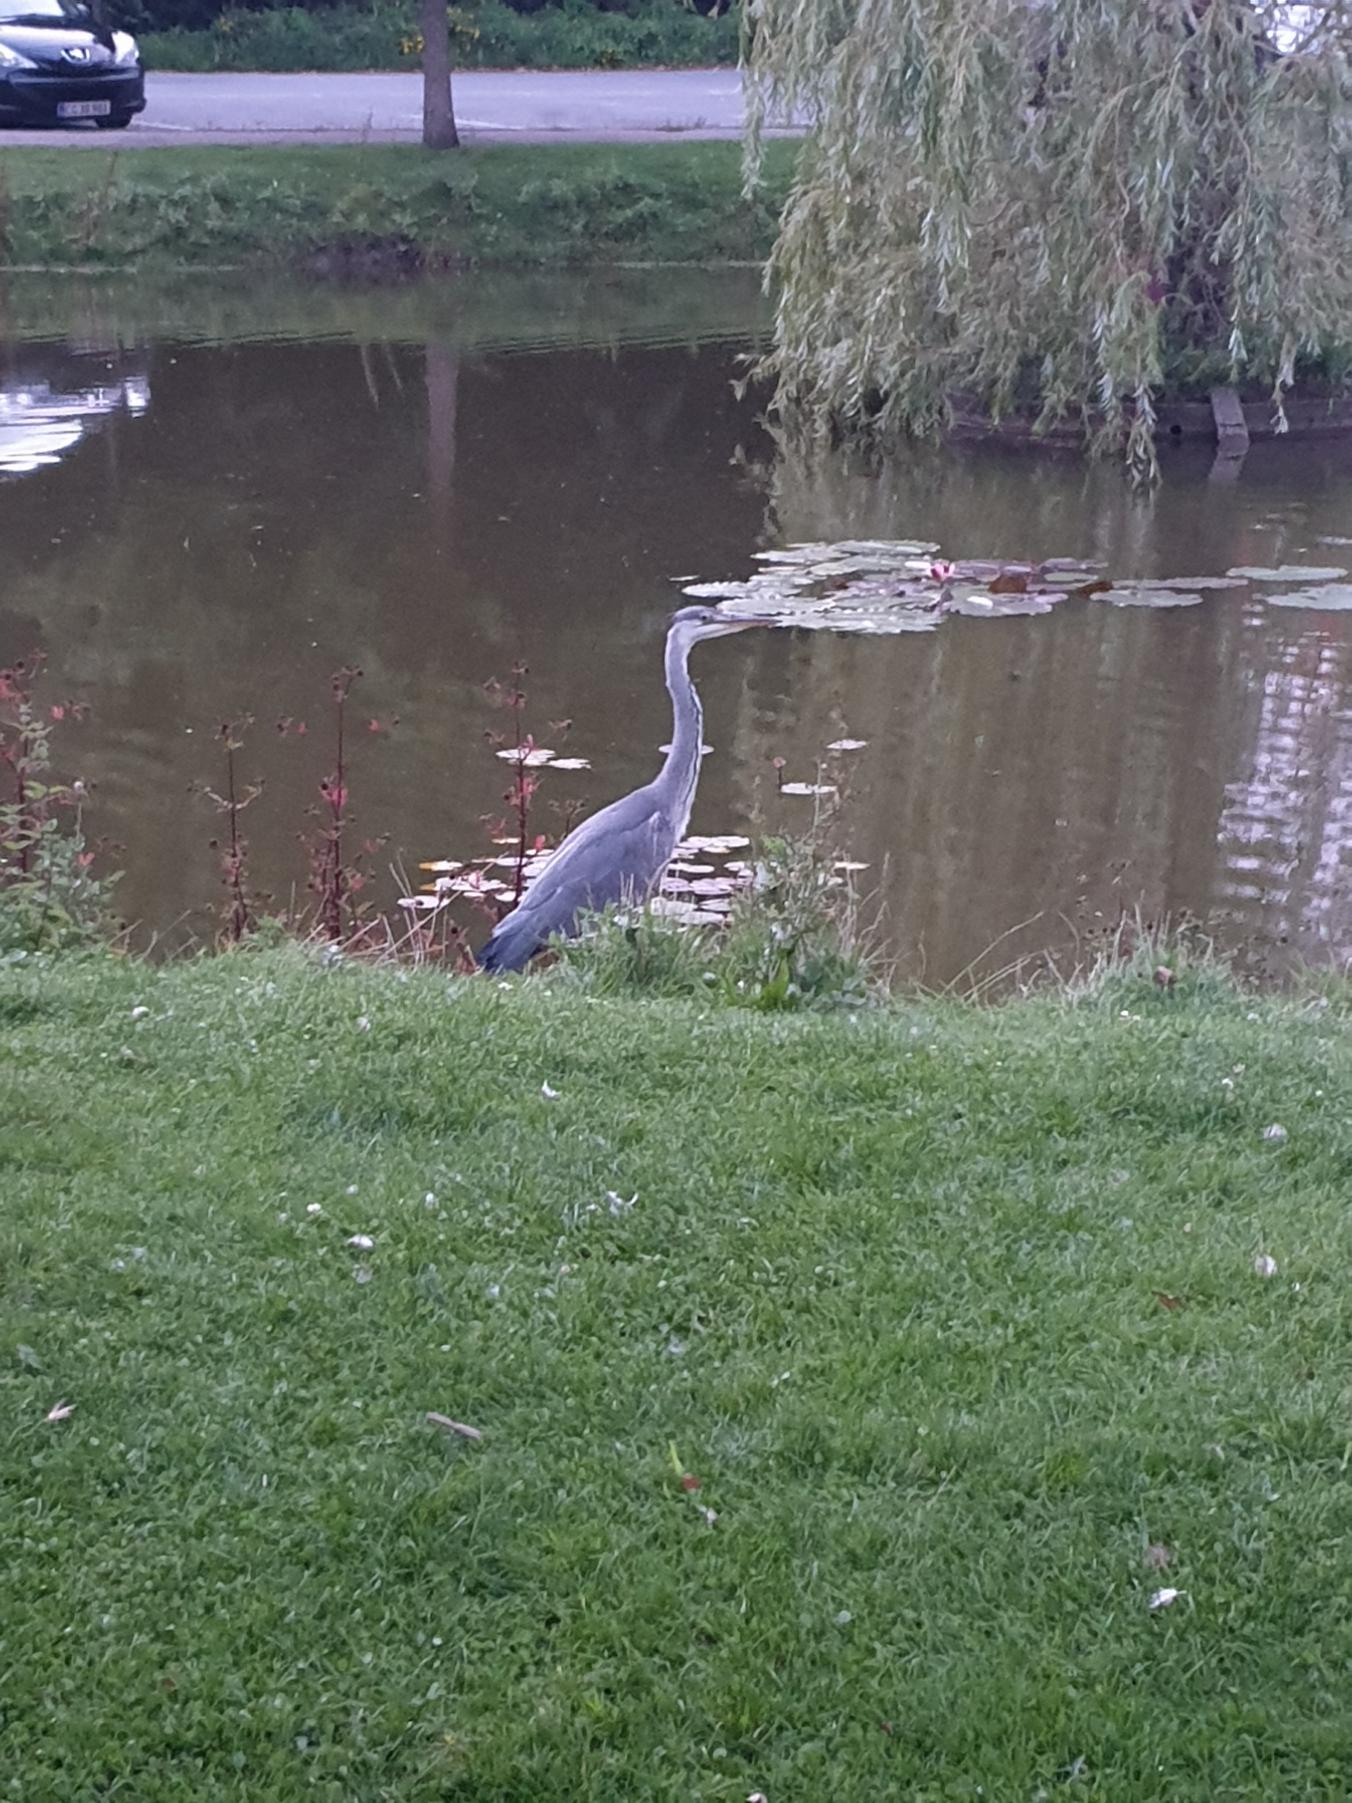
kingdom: Animalia
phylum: Chordata
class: Aves
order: Pelecaniformes
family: Ardeidae
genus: Ardea
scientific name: Ardea cinerea
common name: Fiskehejre
